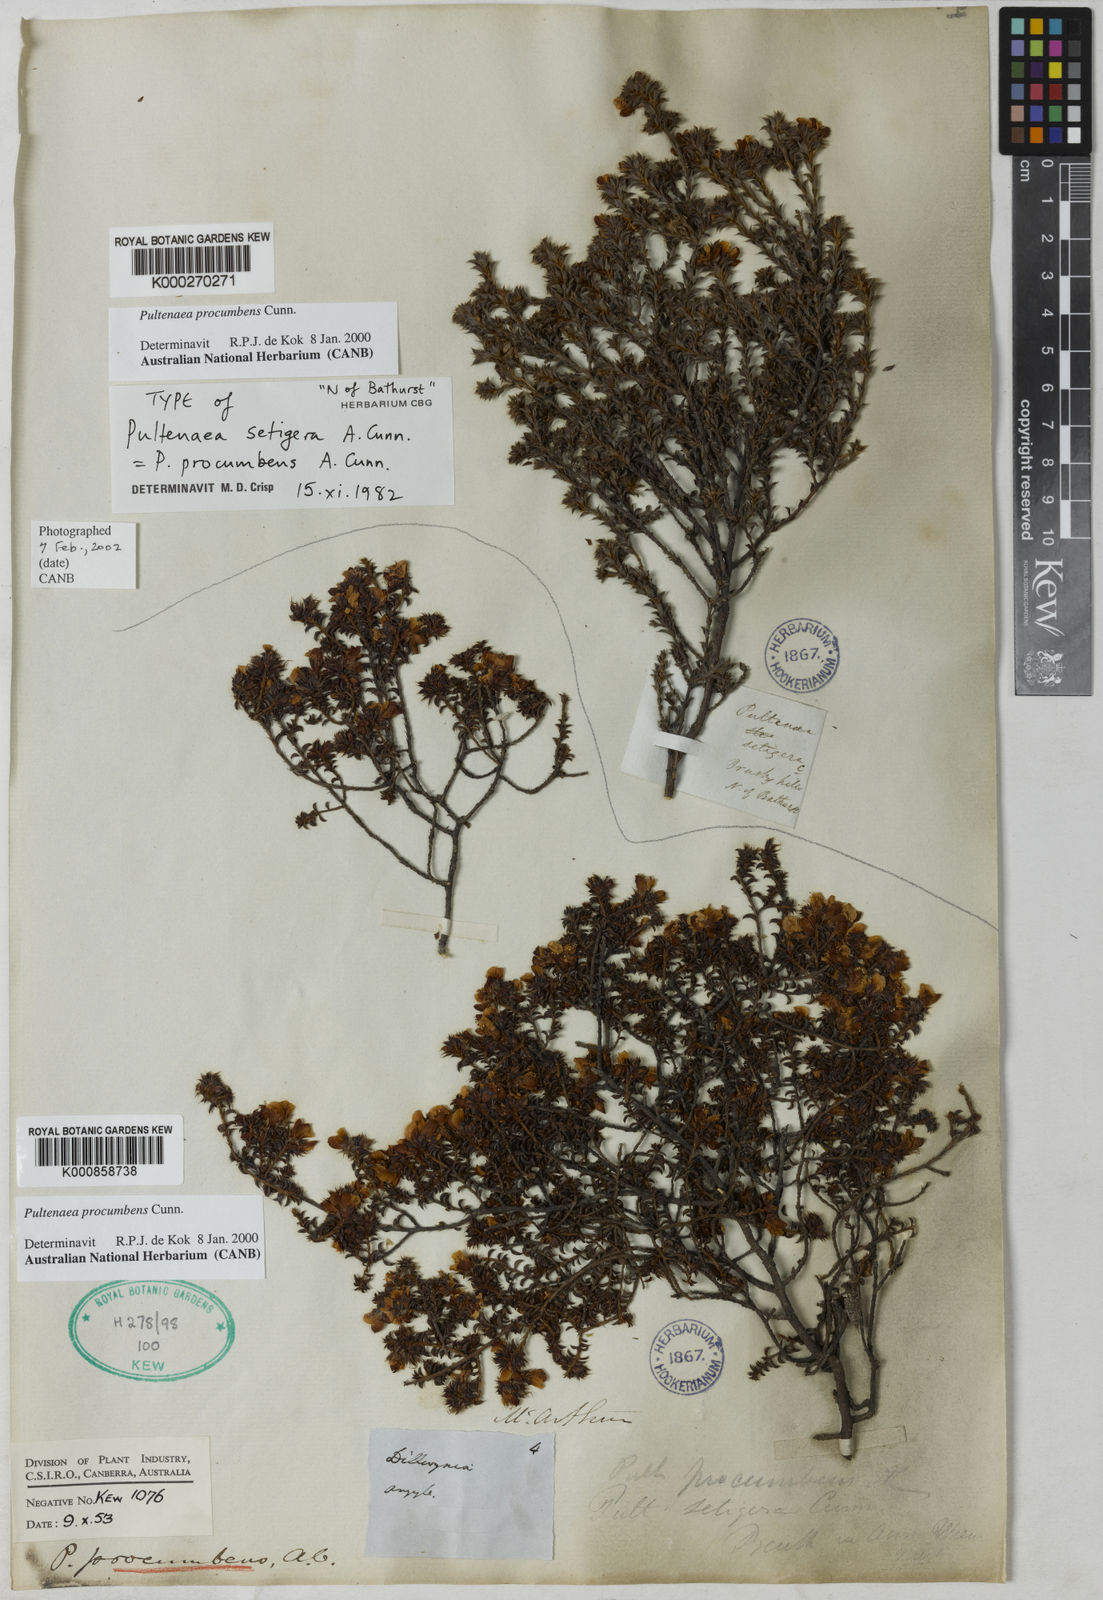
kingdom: Plantae
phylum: Tracheophyta
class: Magnoliopsida
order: Fabales
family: Fabaceae
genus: Pultenaea
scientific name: Pultenaea procumbens
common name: Heathy bush-pea
